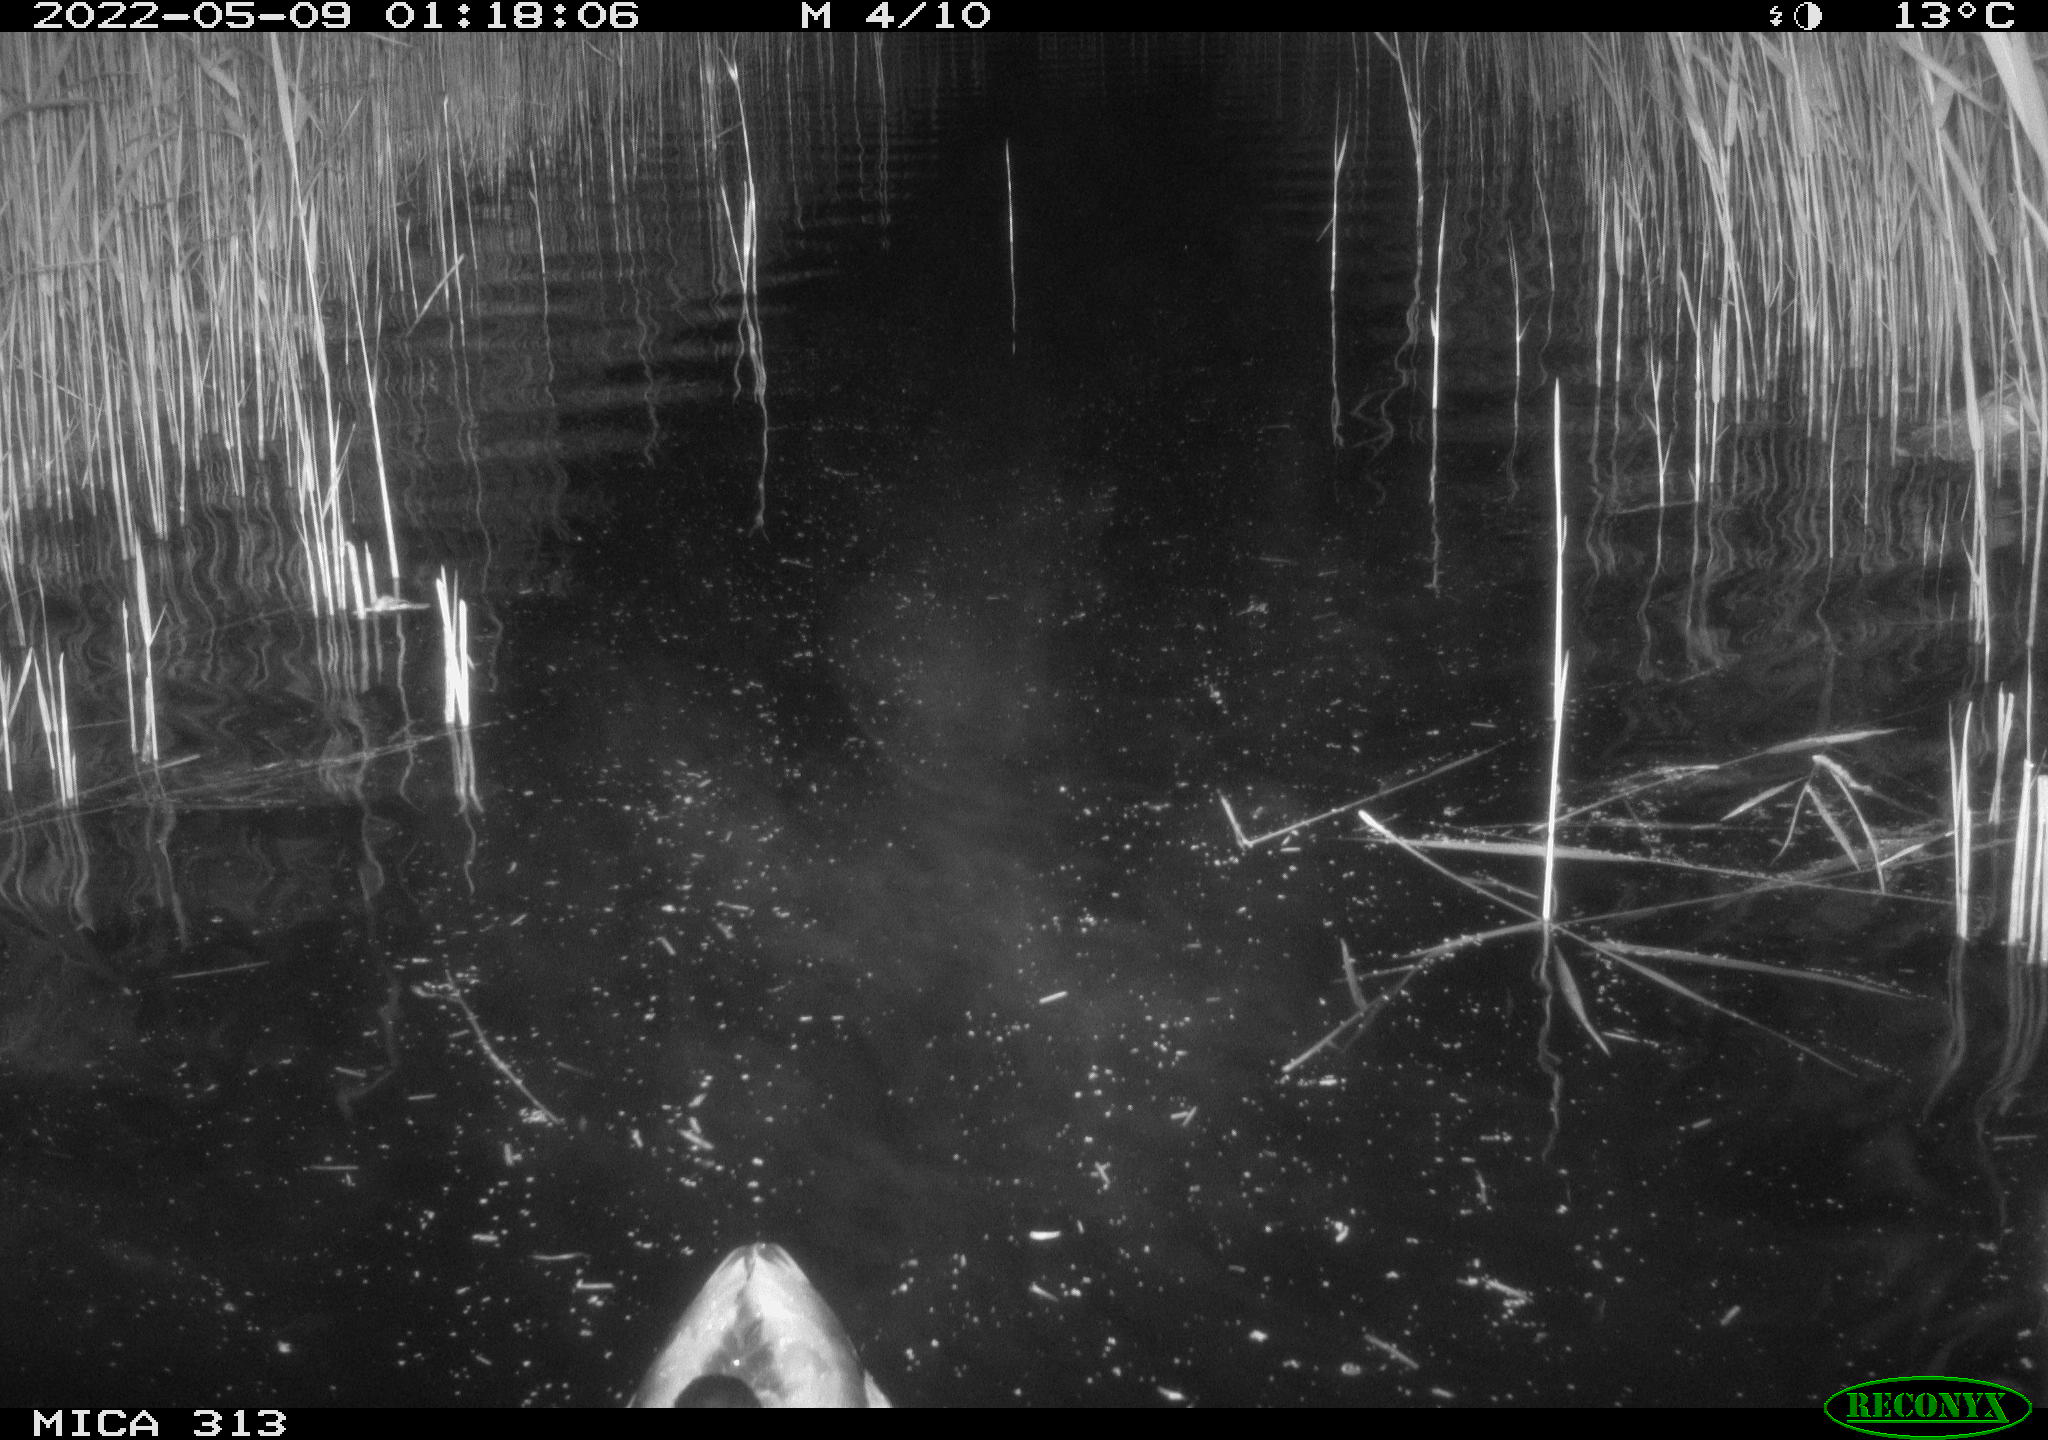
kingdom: Animalia
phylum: Chordata
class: Aves
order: Anseriformes
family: Anatidae
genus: Anas
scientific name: Anas platyrhynchos
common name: Mallard
